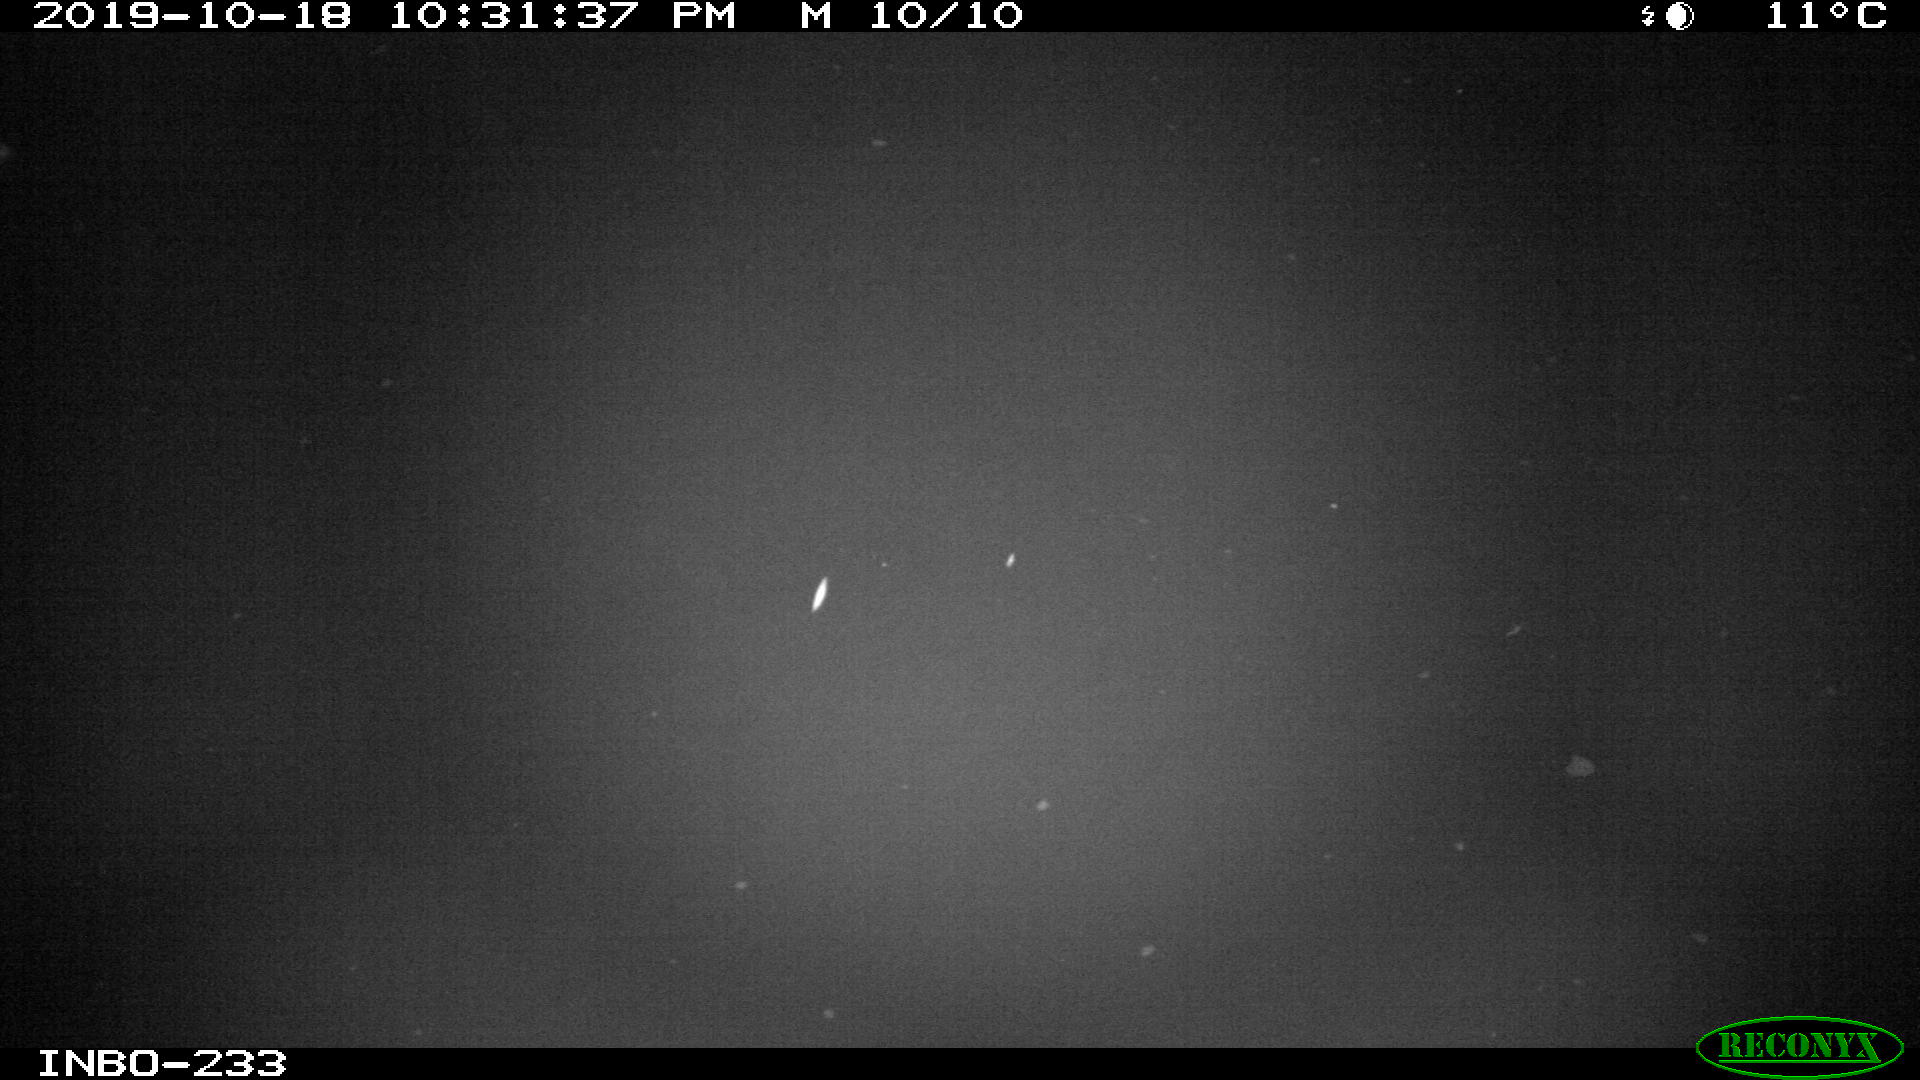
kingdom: Animalia
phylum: Chordata
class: Aves
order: Anseriformes
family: Anatidae
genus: Anas
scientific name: Anas platyrhynchos
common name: Mallard
